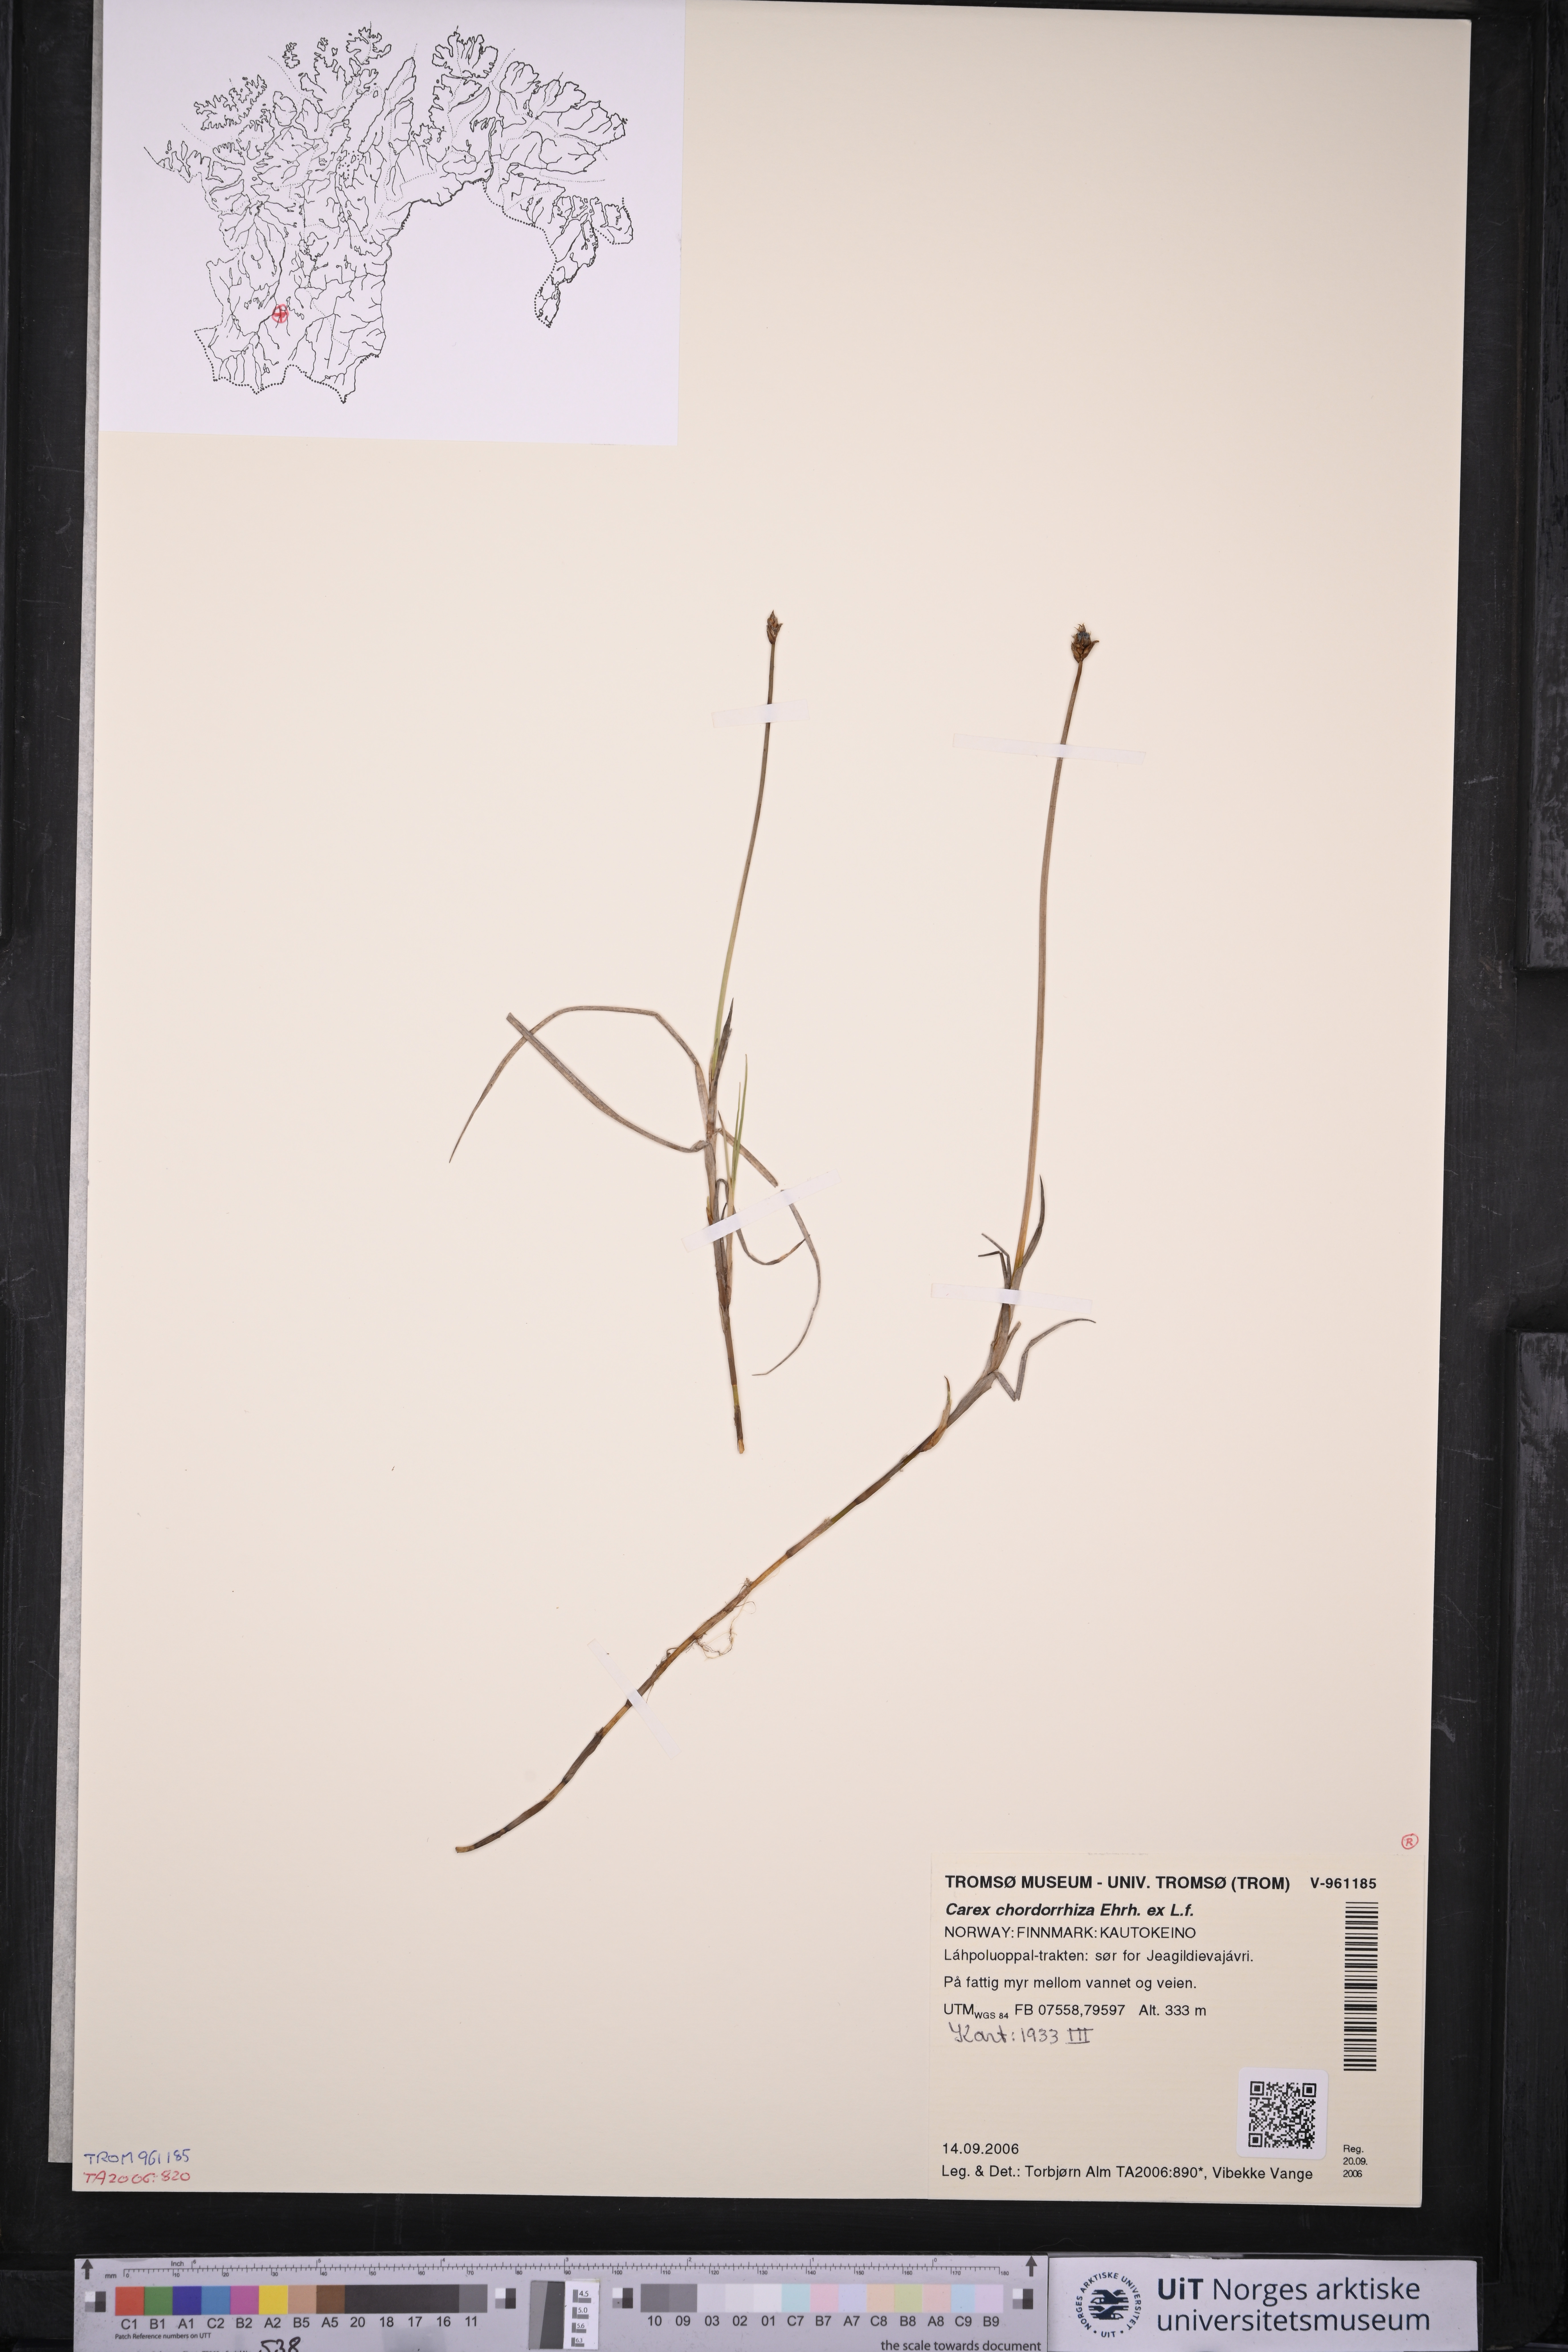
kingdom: Plantae
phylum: Tracheophyta
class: Liliopsida
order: Poales
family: Cyperaceae
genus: Carex
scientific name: Carex chordorrhiza
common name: String sedge
